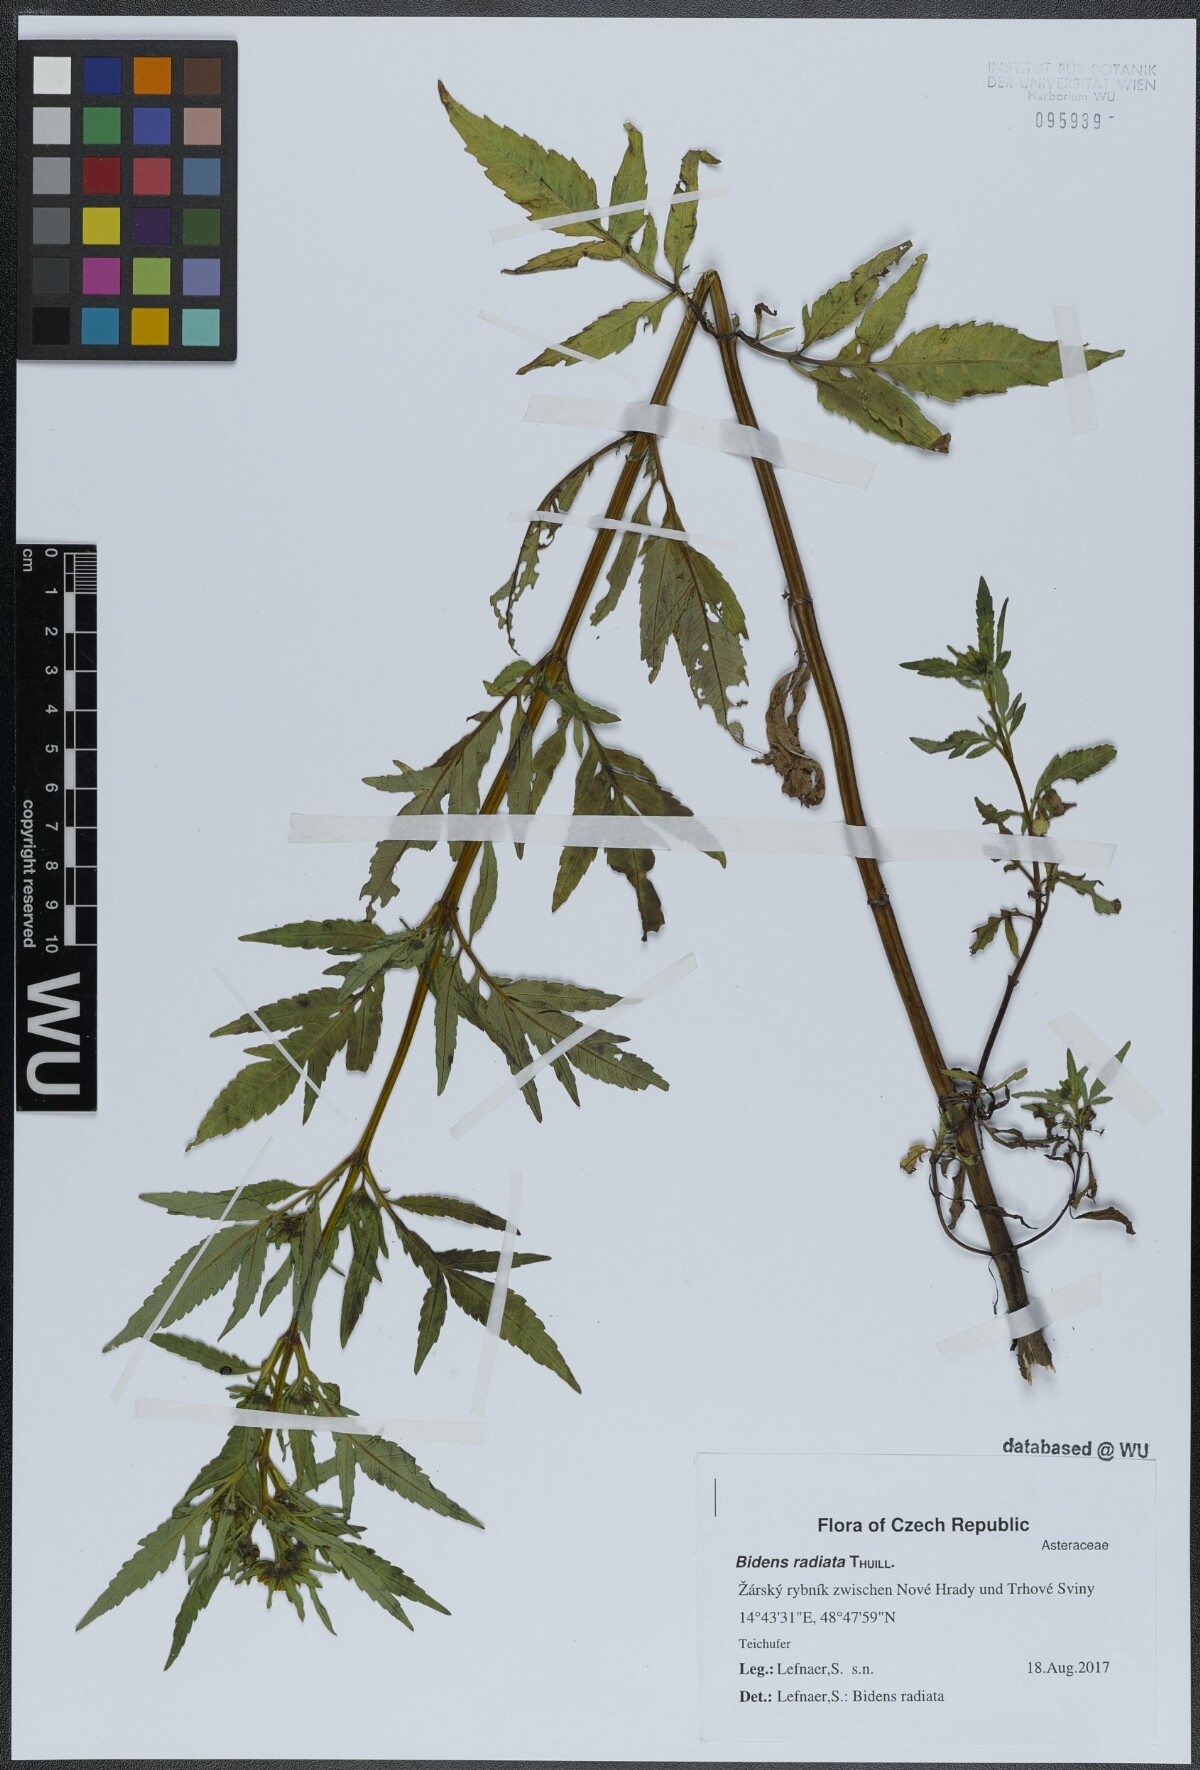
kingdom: Plantae
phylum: Tracheophyta
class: Magnoliopsida
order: Asterales
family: Asteraceae
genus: Bidens
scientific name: Bidens radiata
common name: Radiating bur-marigold
